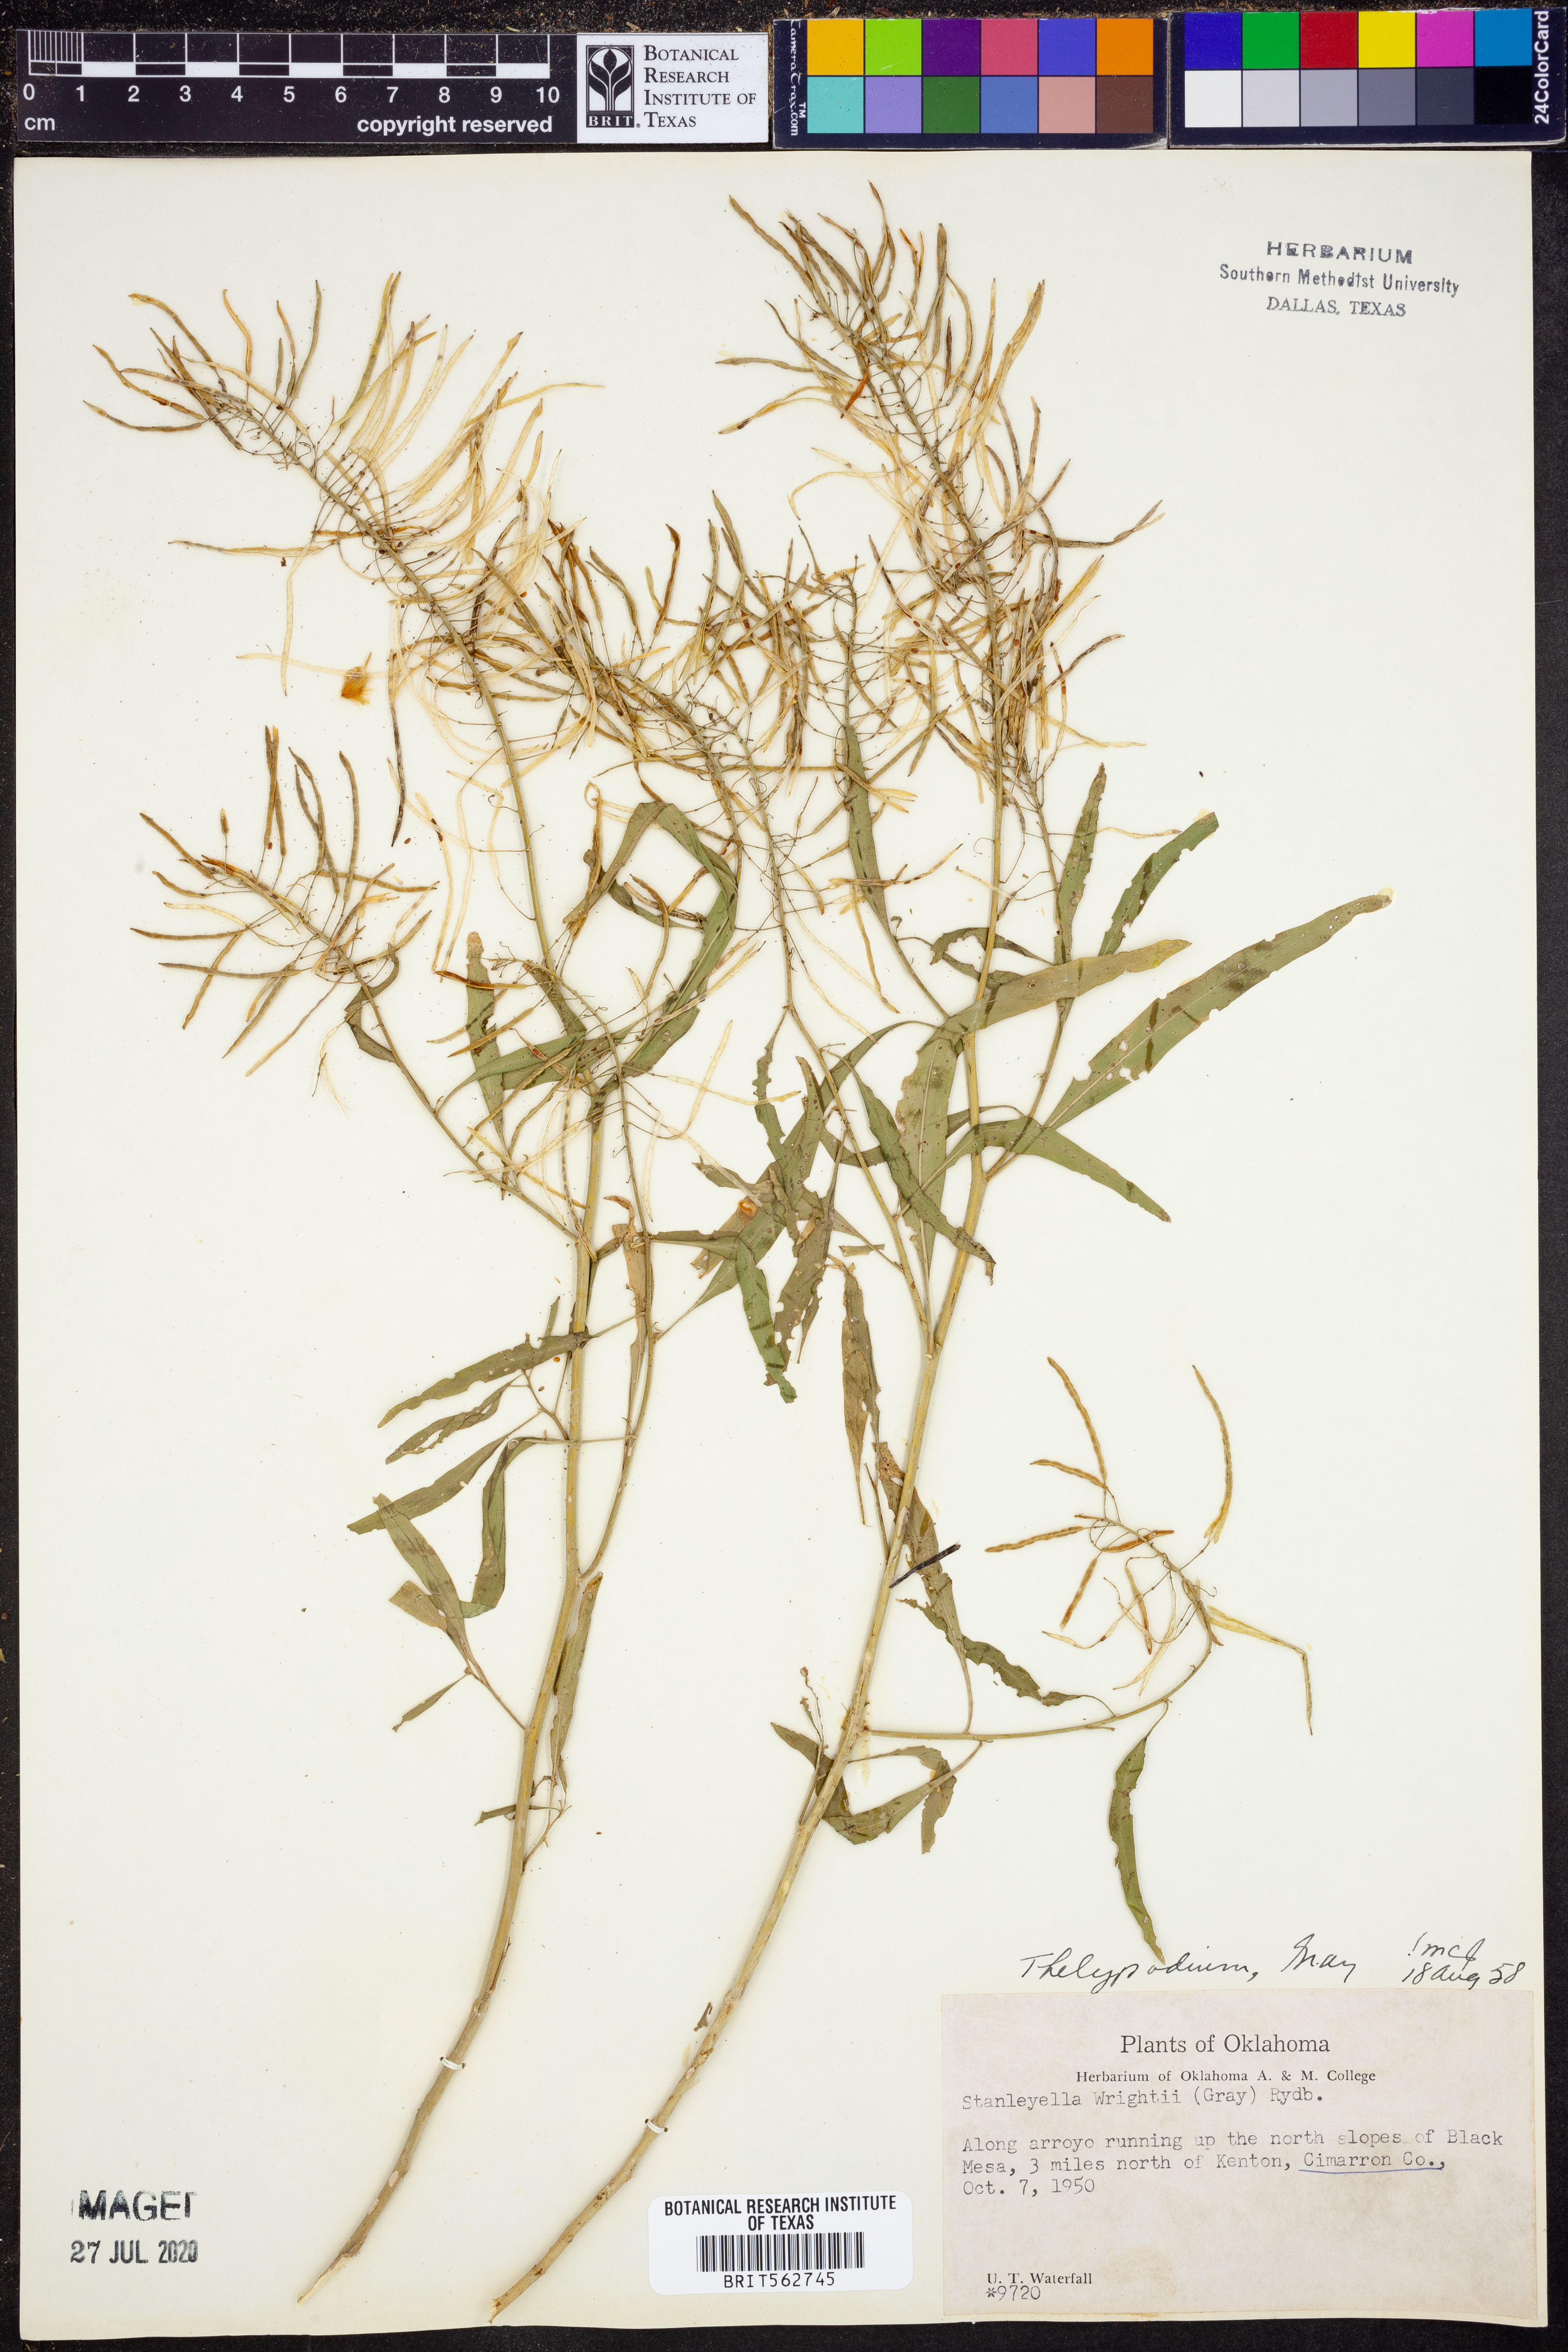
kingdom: Plantae
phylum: Tracheophyta
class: Magnoliopsida
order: Brassicales
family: Brassicaceae
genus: Thelypodium
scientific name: Thelypodium wrightii
